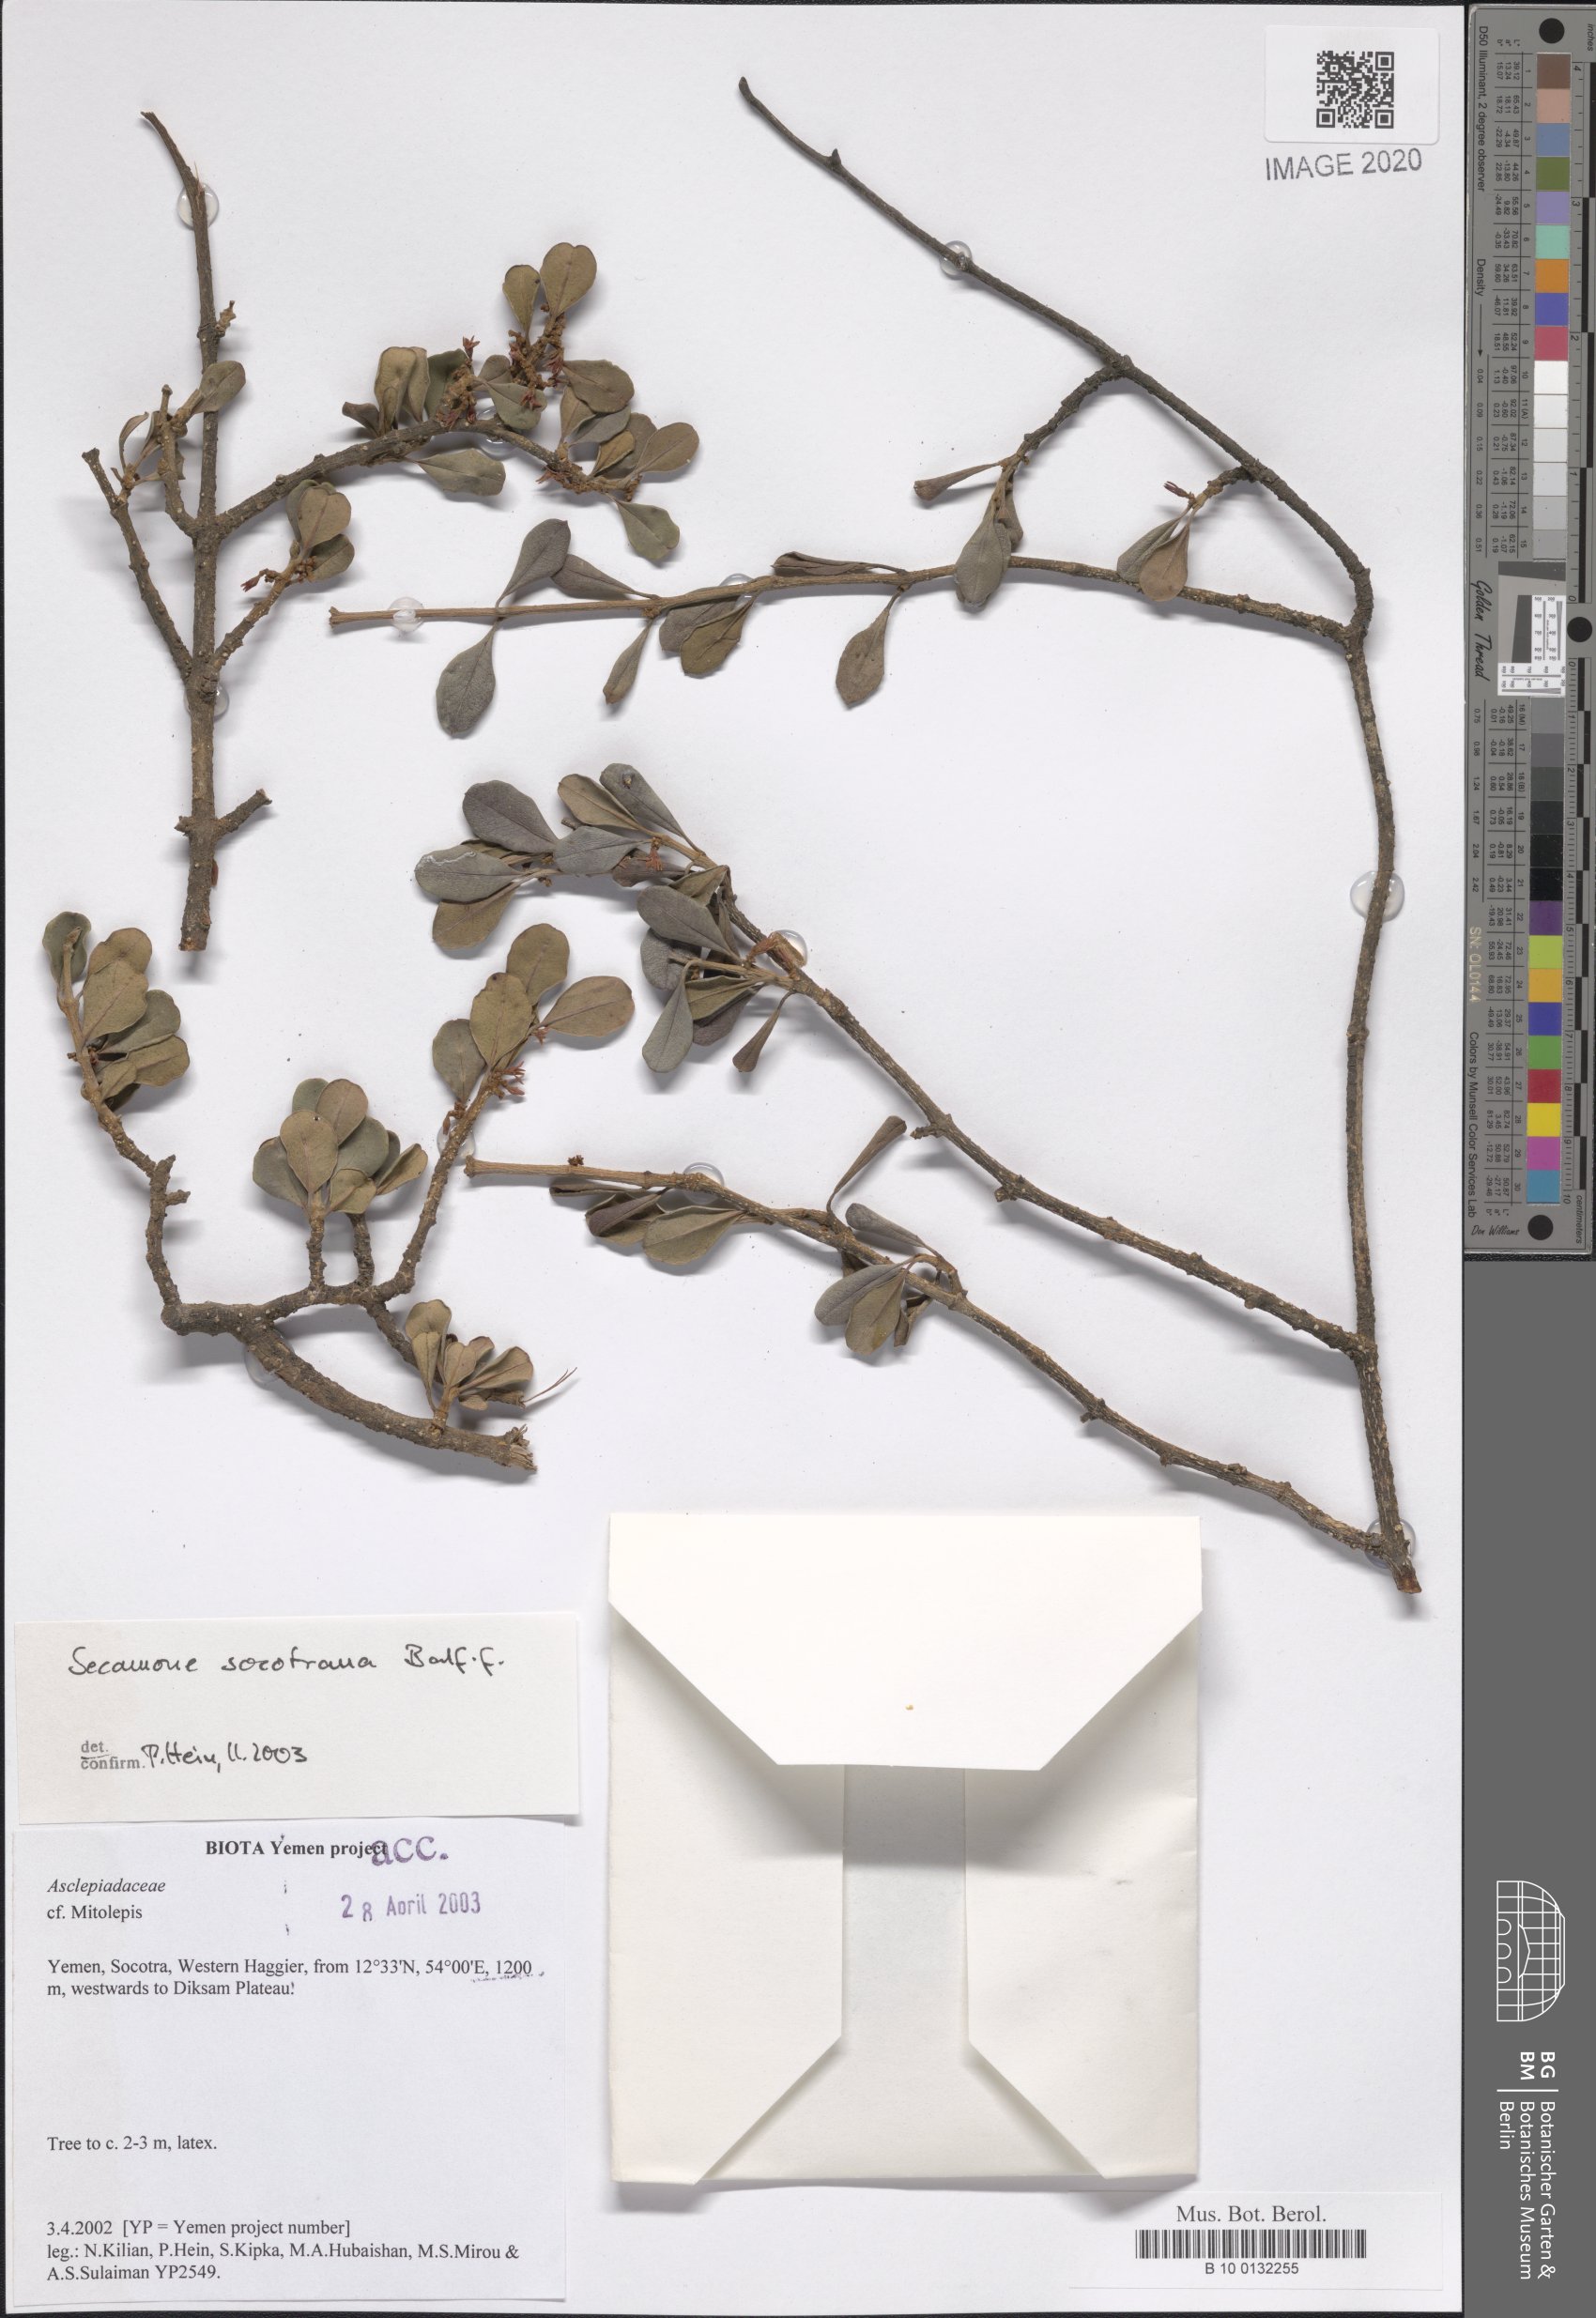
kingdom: Plantae
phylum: Tracheophyta
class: Magnoliopsida
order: Gentianales
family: Apocynaceae
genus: Secamone
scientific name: Secamone socotrana
